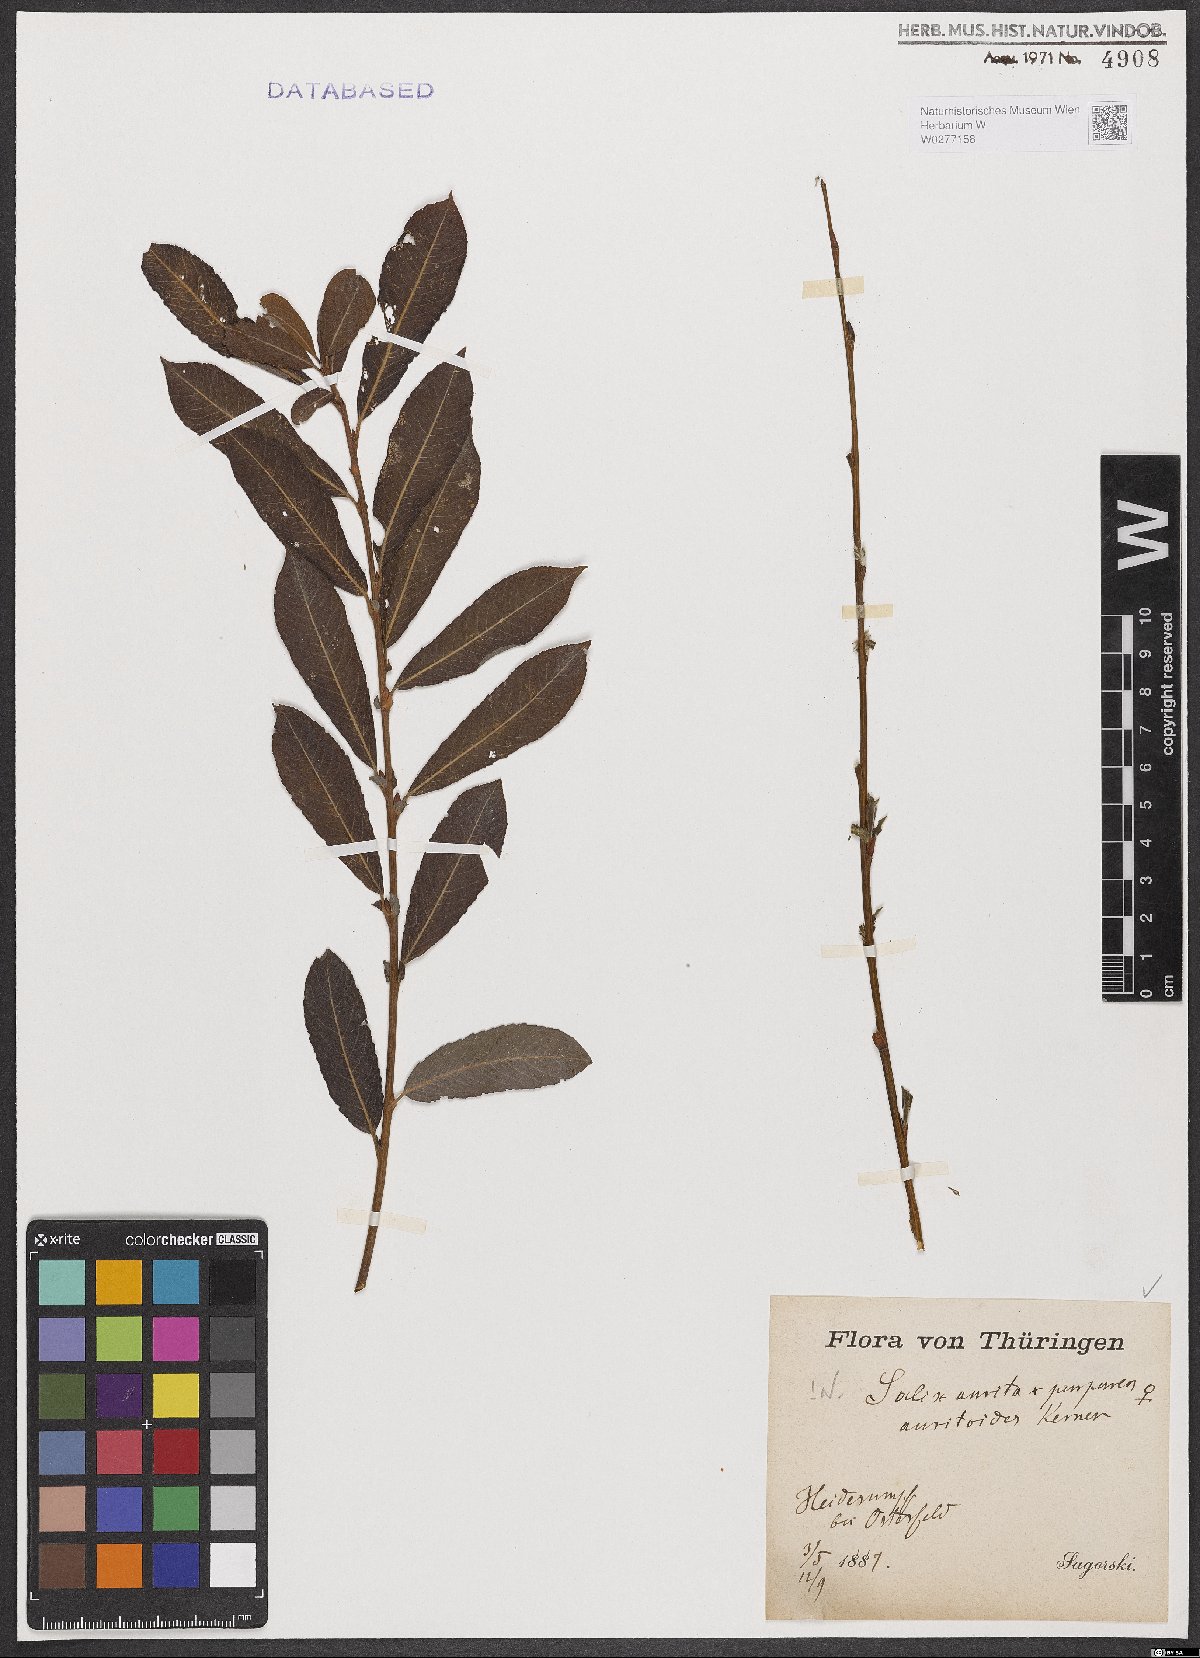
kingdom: Plantae
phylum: Tracheophyta
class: Magnoliopsida
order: Malpighiales
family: Salicaceae
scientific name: Salicaceae
